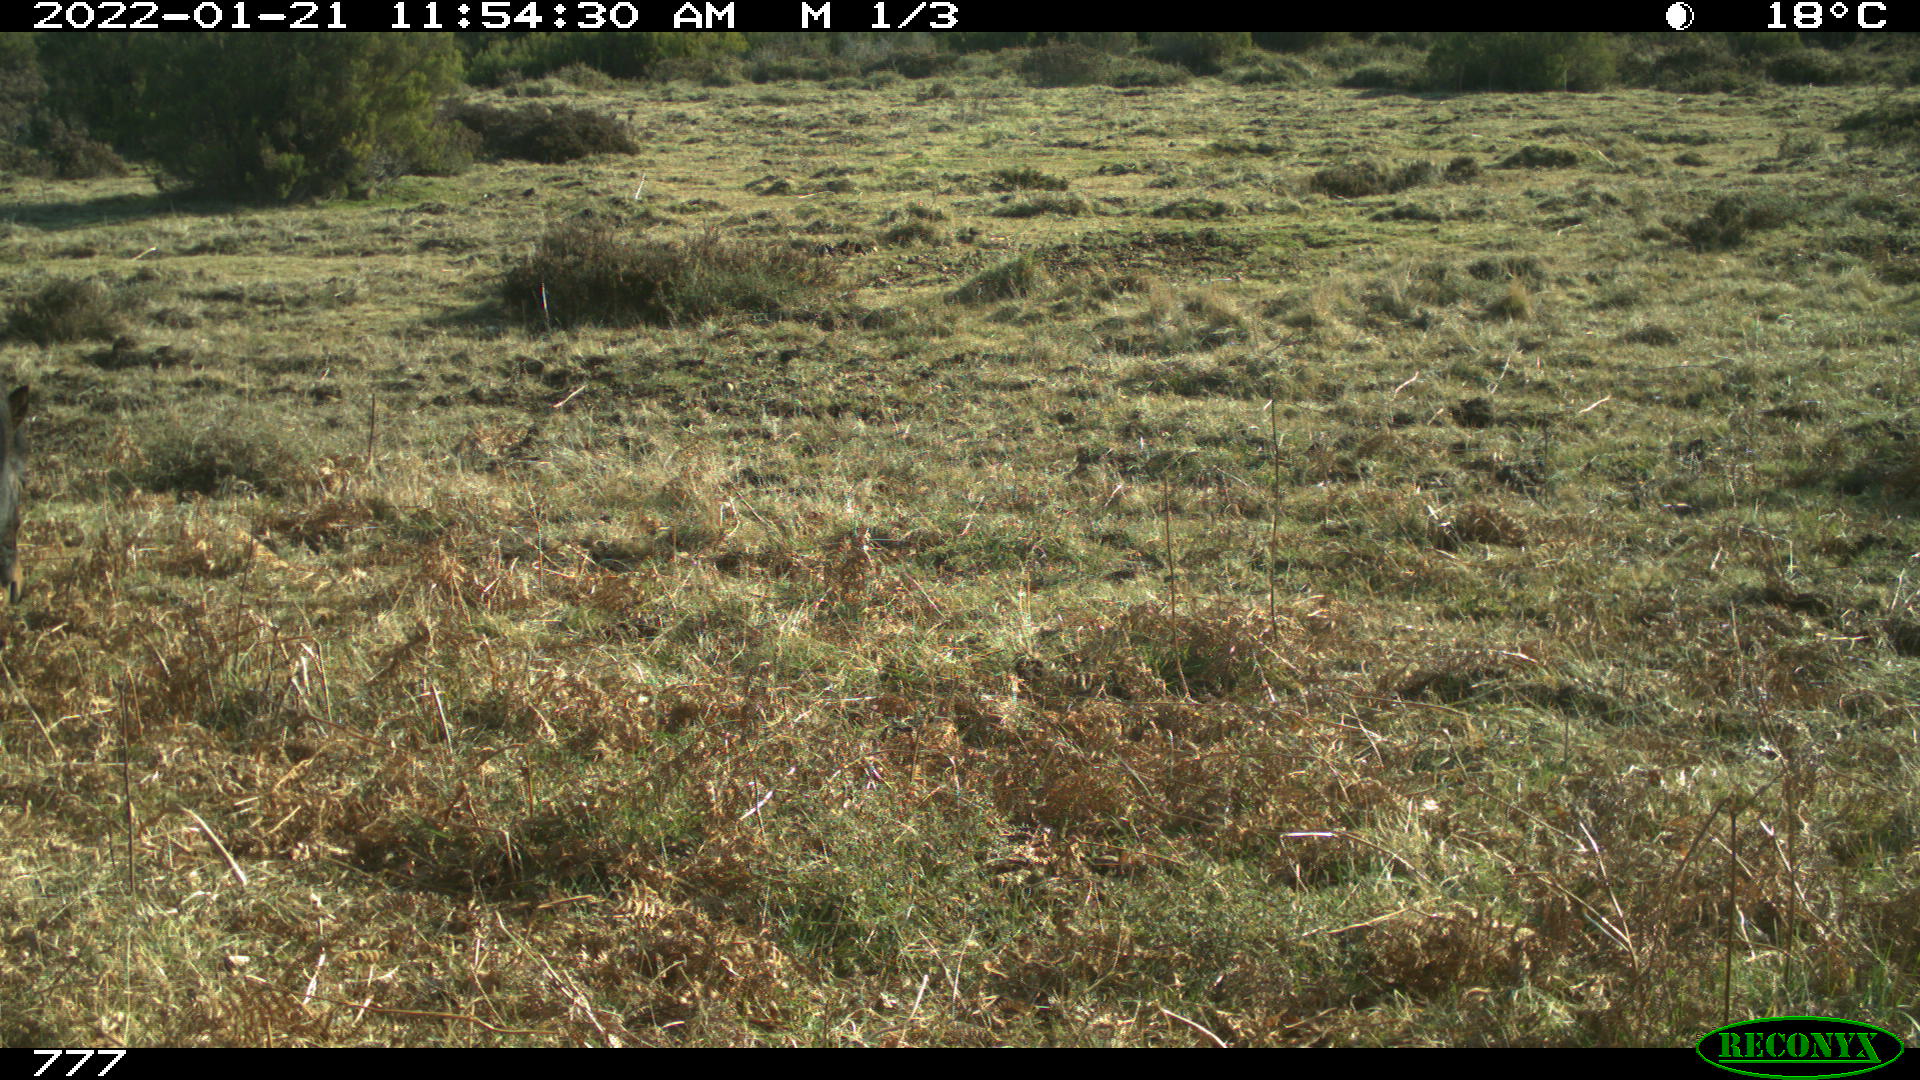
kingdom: Animalia
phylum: Chordata
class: Mammalia
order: Perissodactyla
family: Equidae
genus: Equus
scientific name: Equus caballus
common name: Horse
